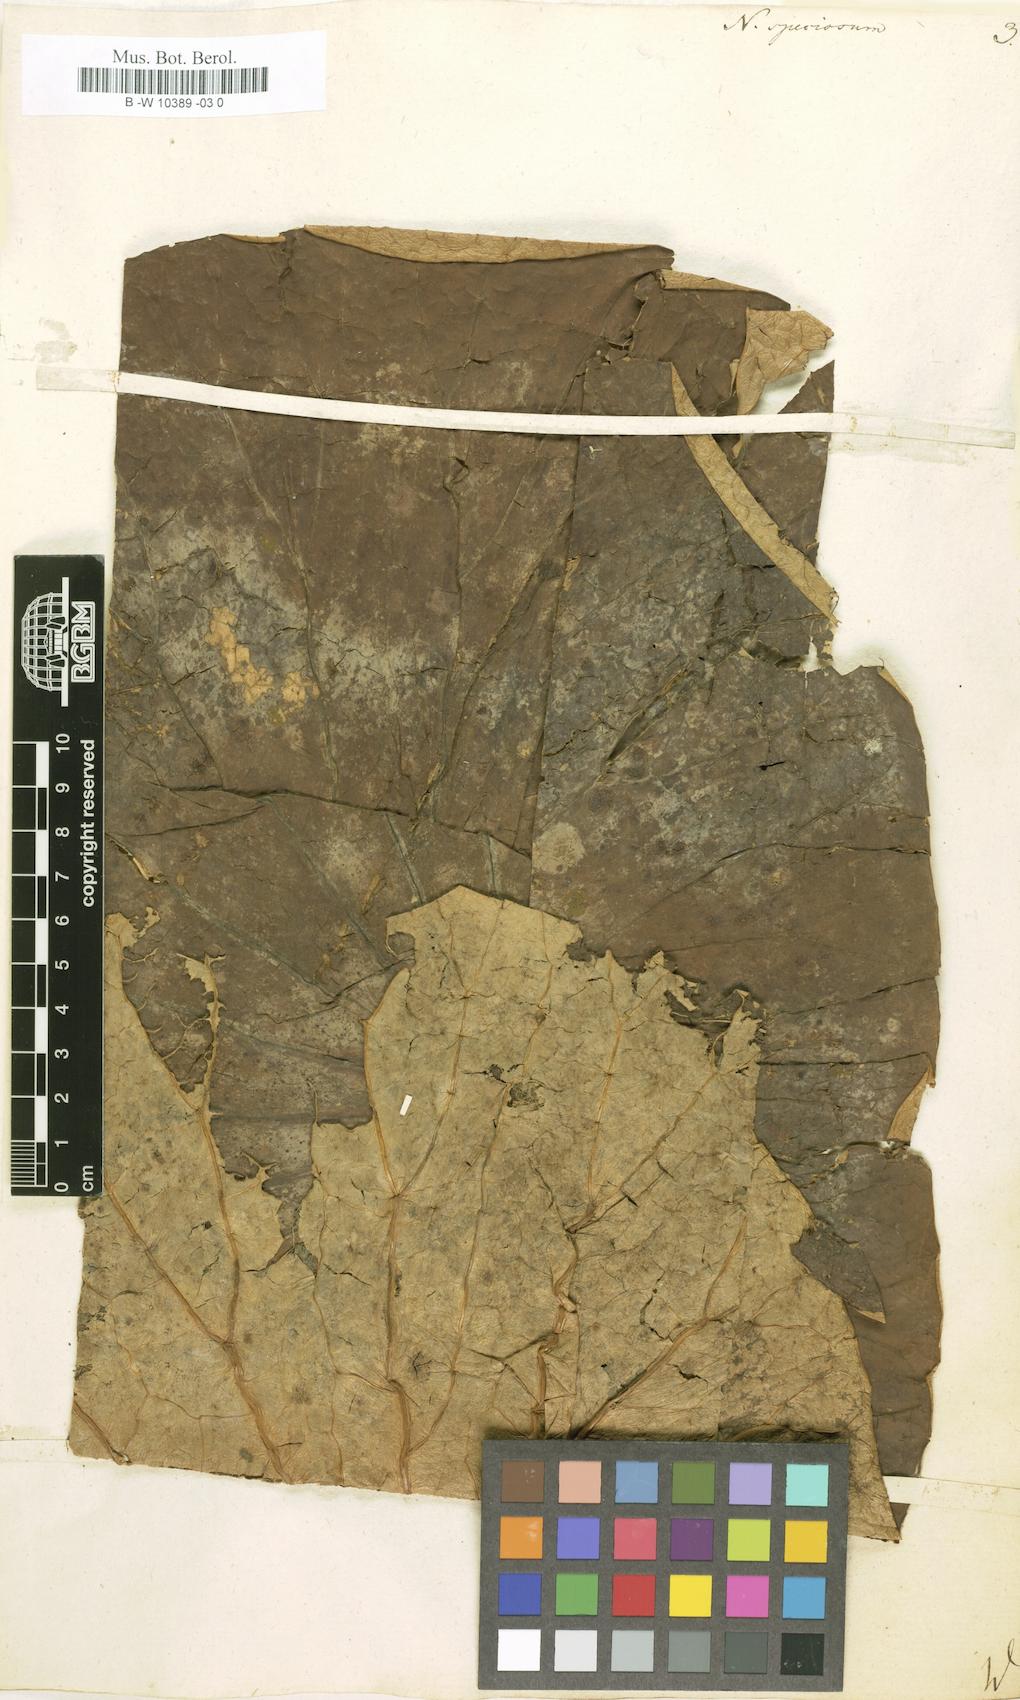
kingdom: Plantae
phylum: Tracheophyta
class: Magnoliopsida
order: Proteales
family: Nelumbonaceae
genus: Nelumbo
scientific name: Nelumbo nucifera
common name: Sacred lotus
